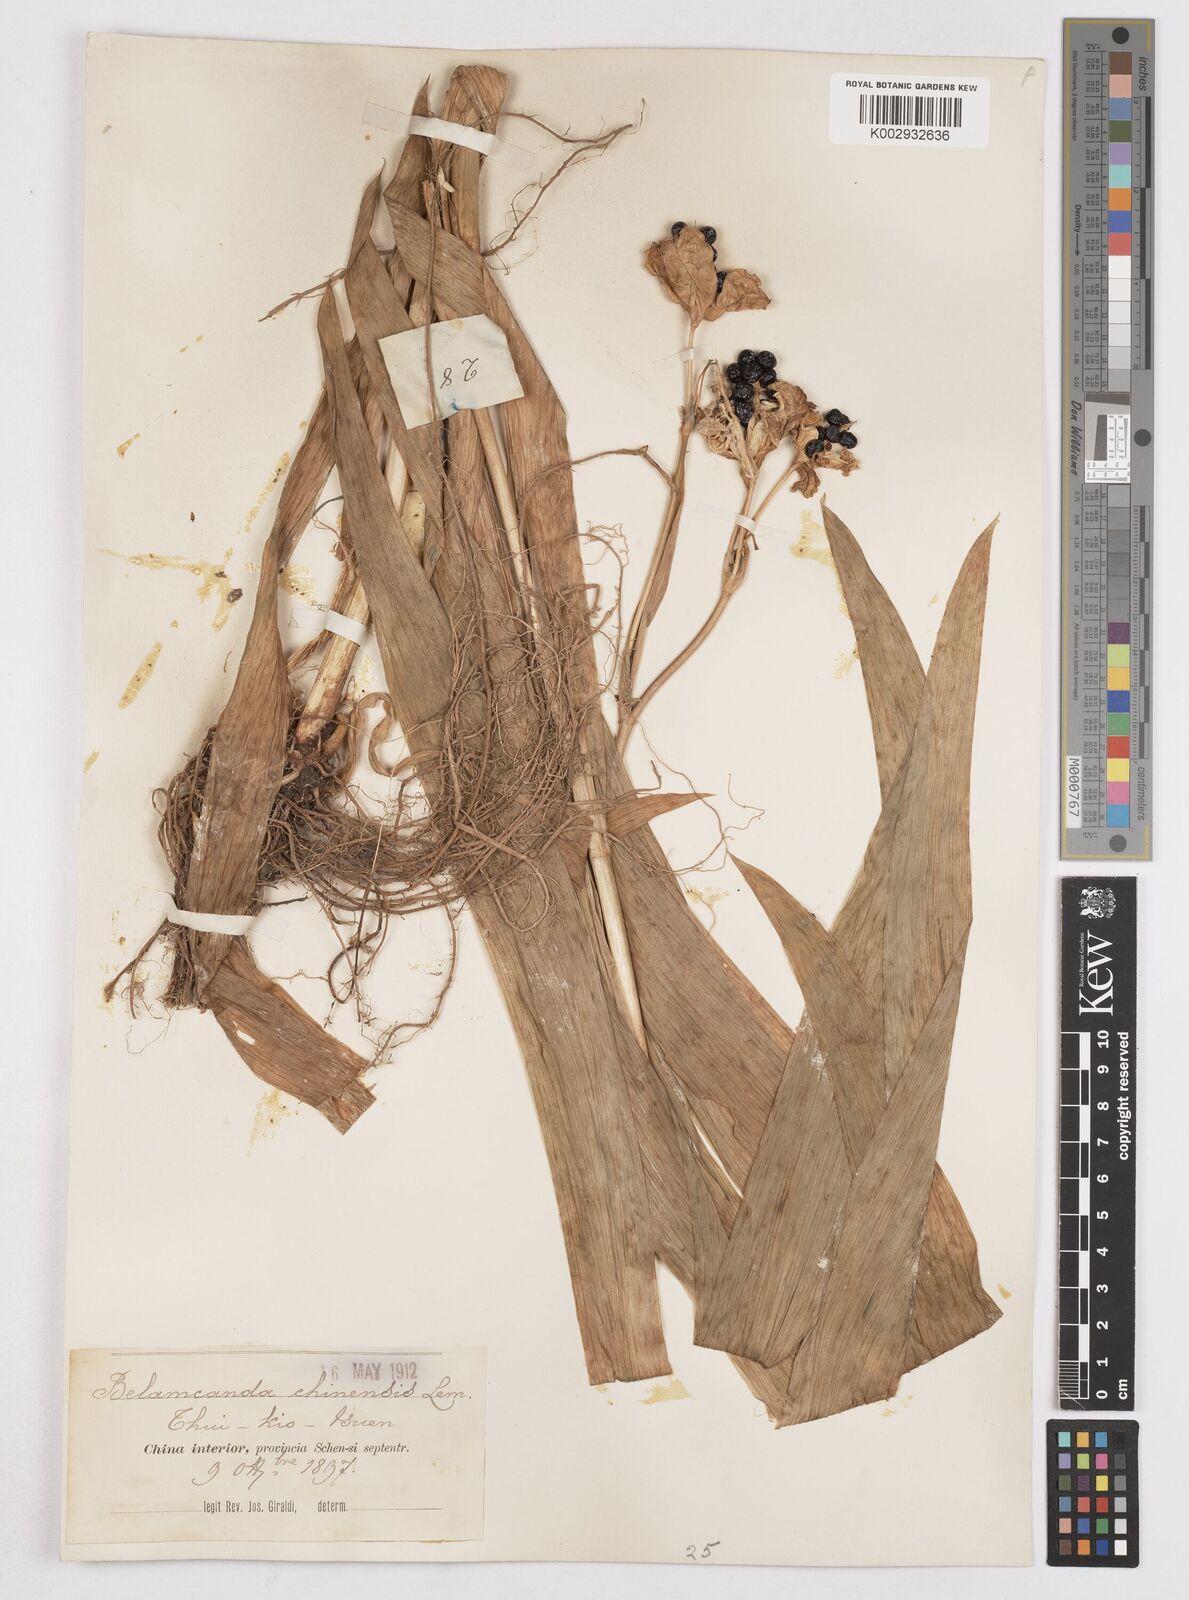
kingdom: Plantae
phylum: Tracheophyta
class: Liliopsida
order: Asparagales
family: Iridaceae
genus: Iris
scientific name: Iris
